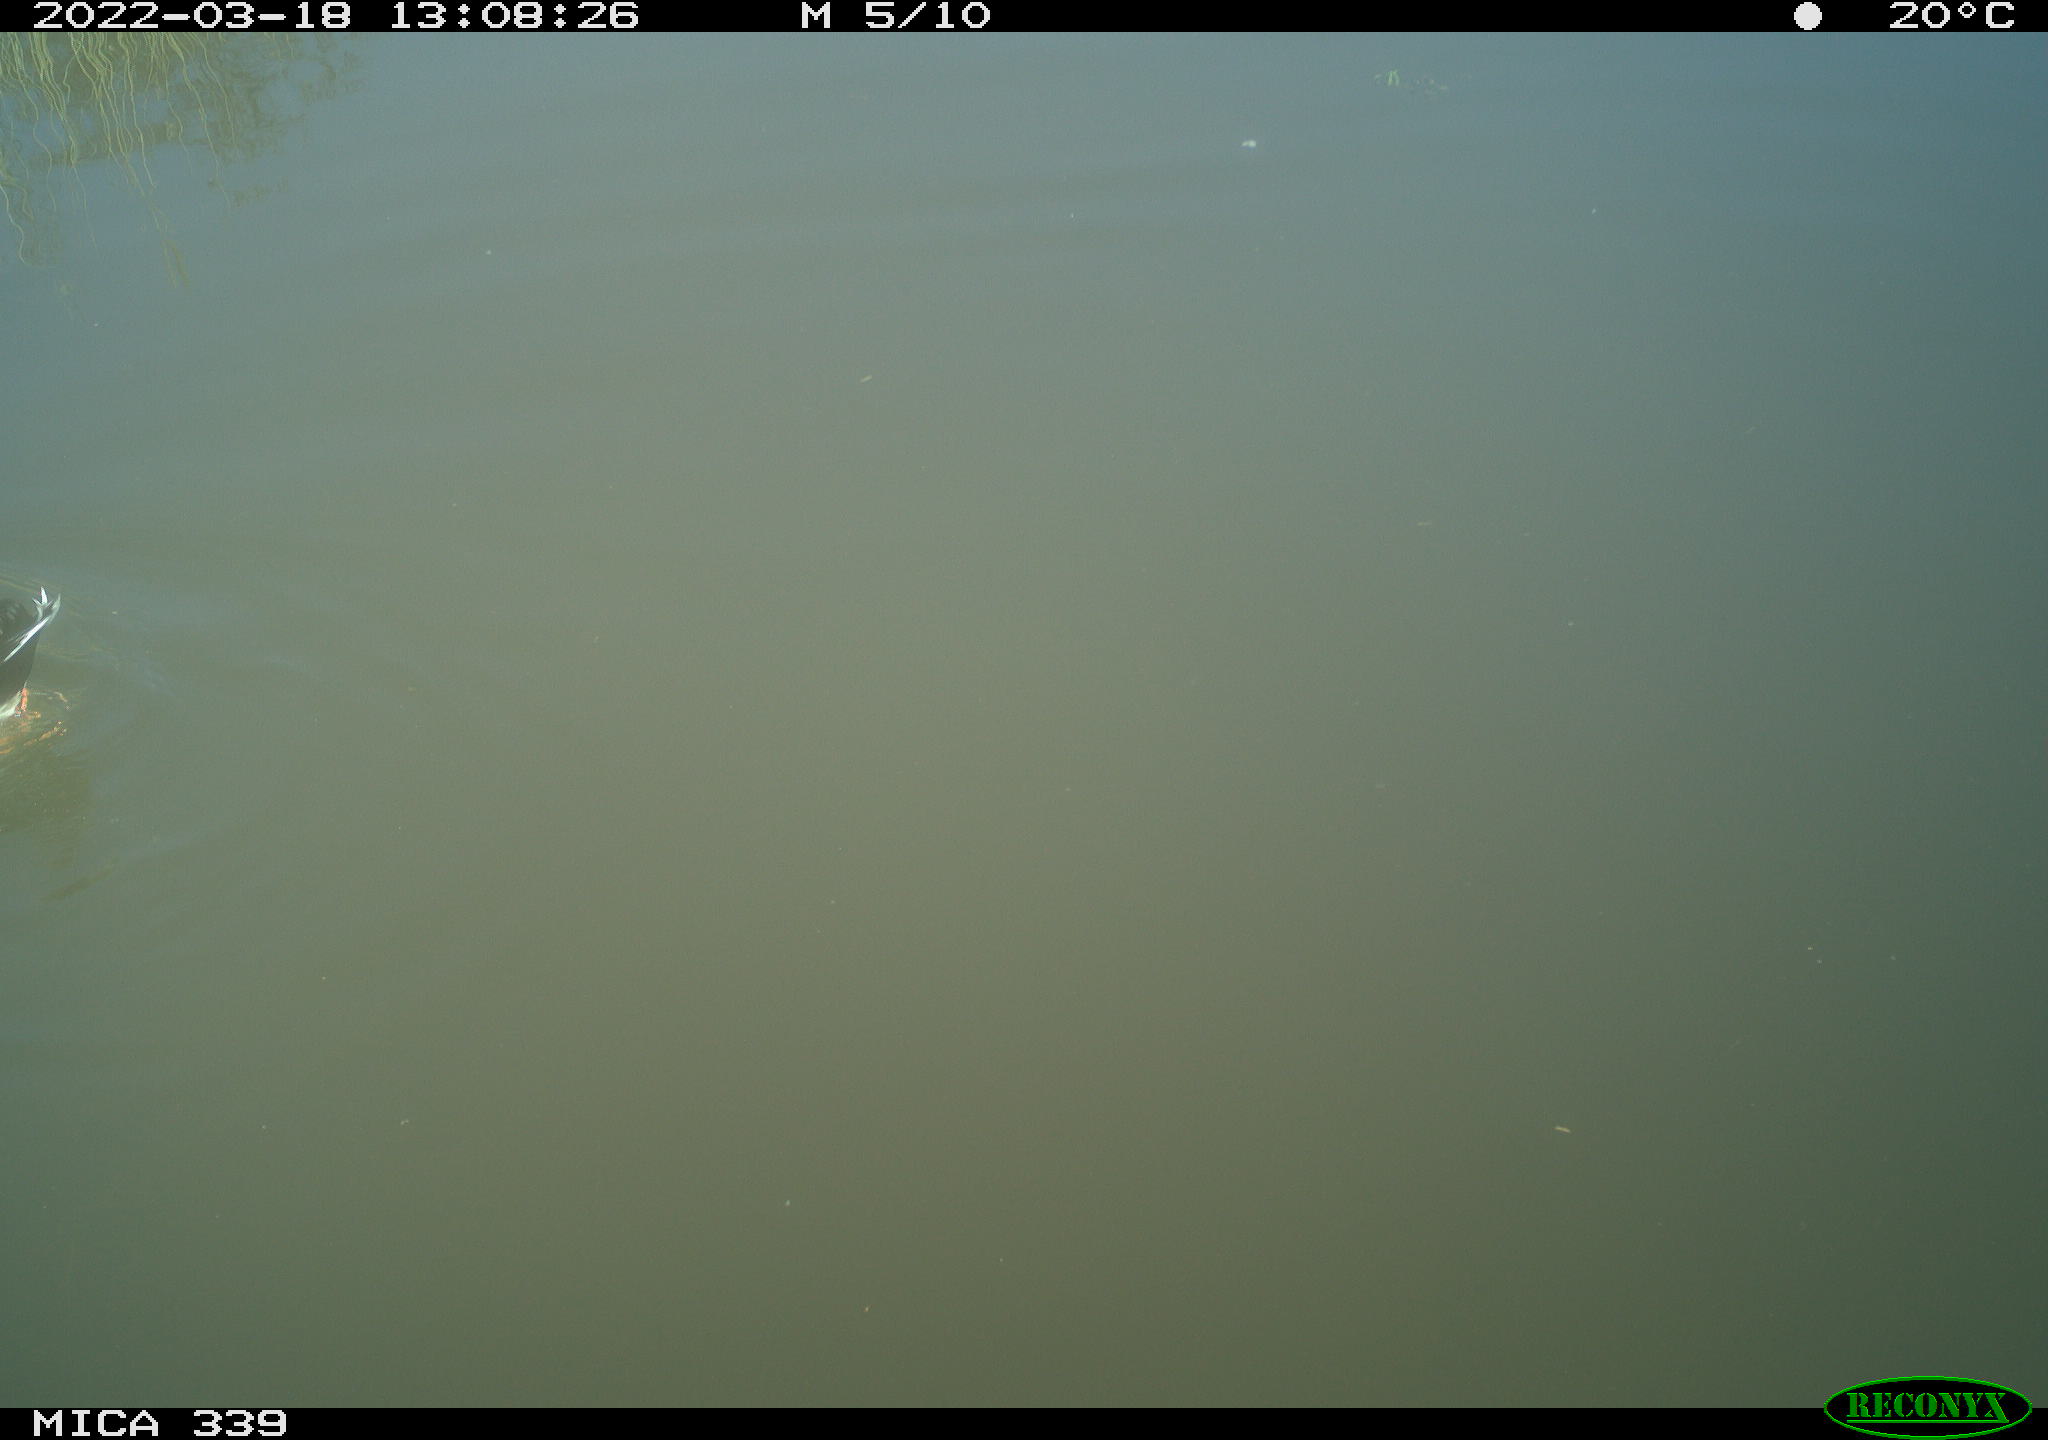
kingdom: Animalia
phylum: Chordata
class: Aves
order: Anseriformes
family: Anatidae
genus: Anas
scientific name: Anas platyrhynchos
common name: Mallard
